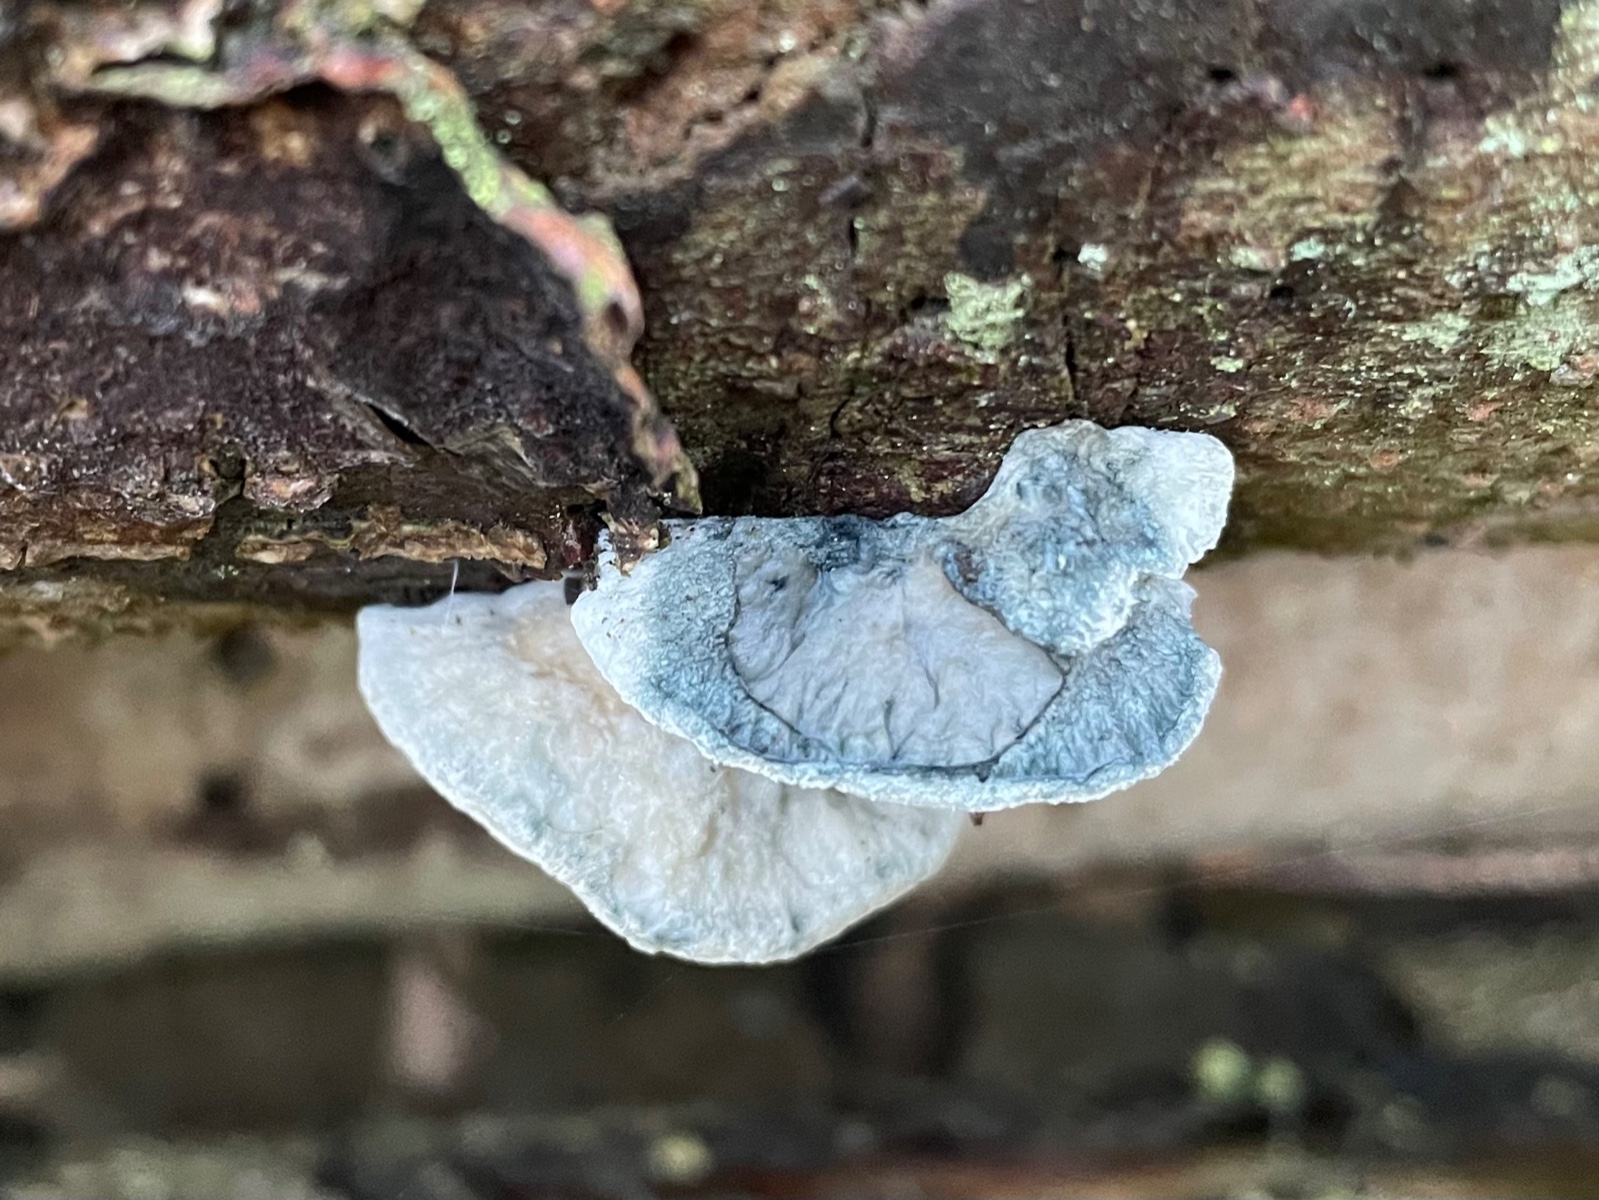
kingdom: Fungi
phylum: Basidiomycota
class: Agaricomycetes
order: Polyporales
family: Polyporaceae
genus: Cyanosporus
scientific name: Cyanosporus caesius
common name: blålig kødporesvamp
